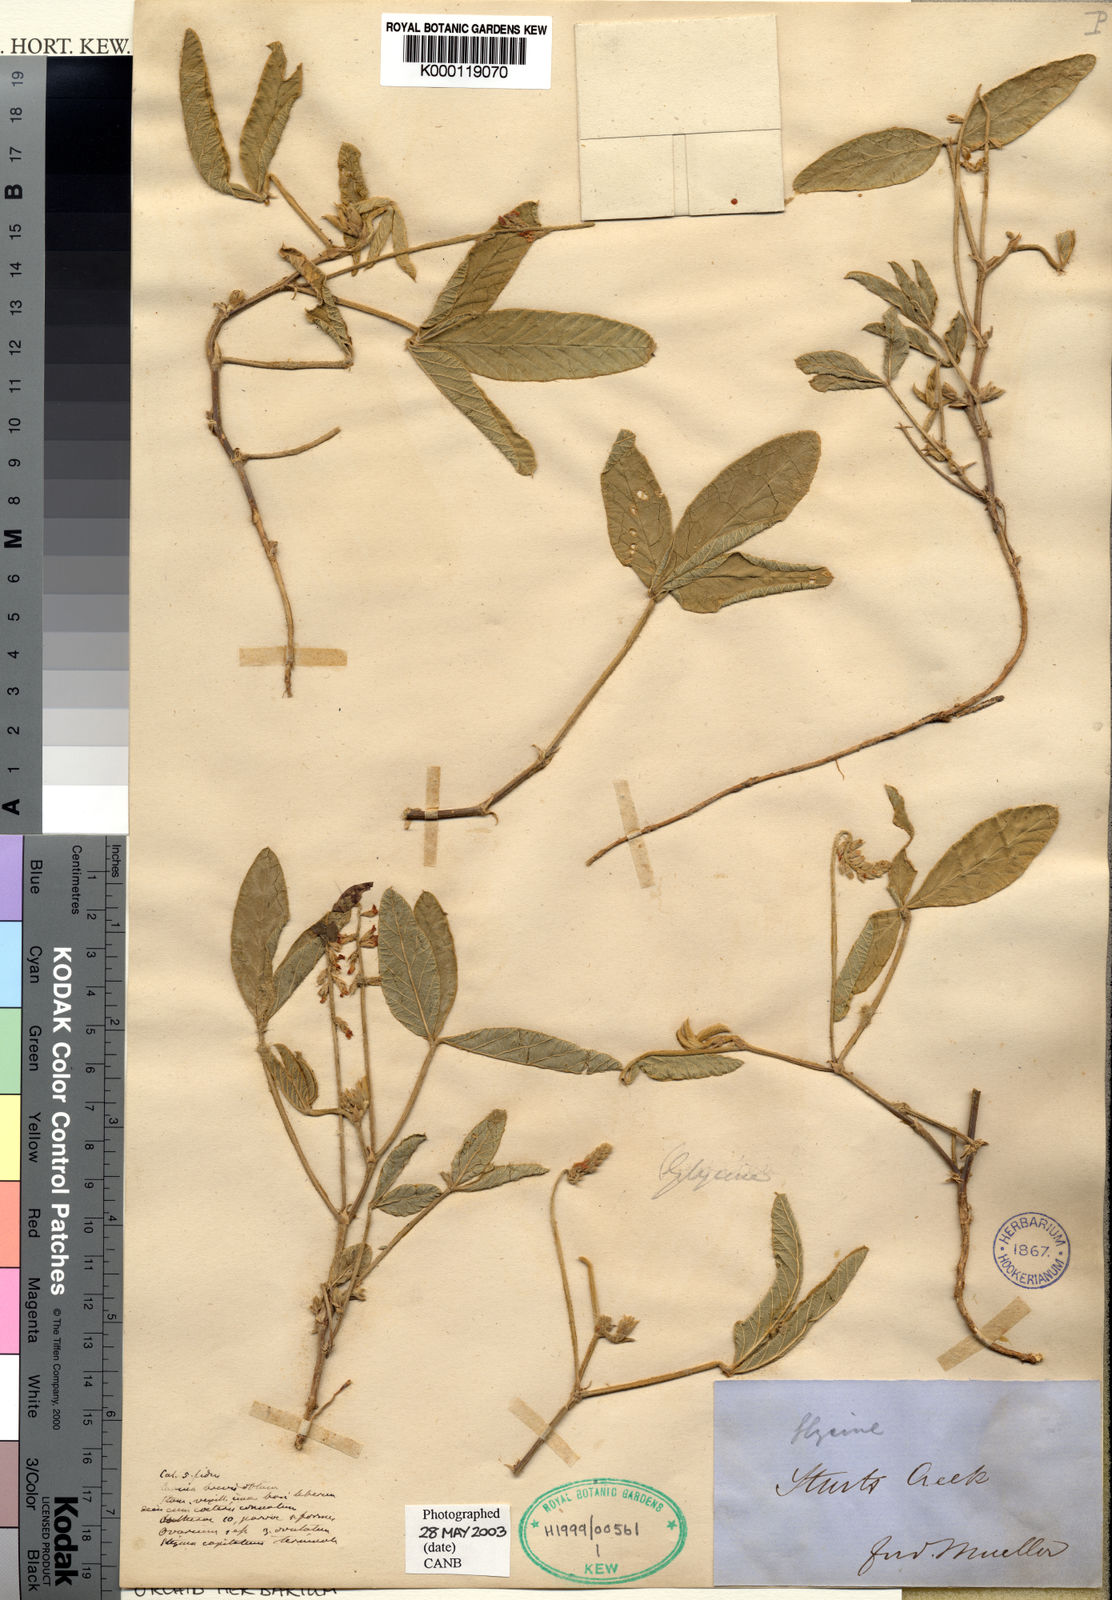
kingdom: Plantae
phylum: Tracheophyta
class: Magnoliopsida
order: Fabales
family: Fabaceae
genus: Glycine
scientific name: Glycine falcata
